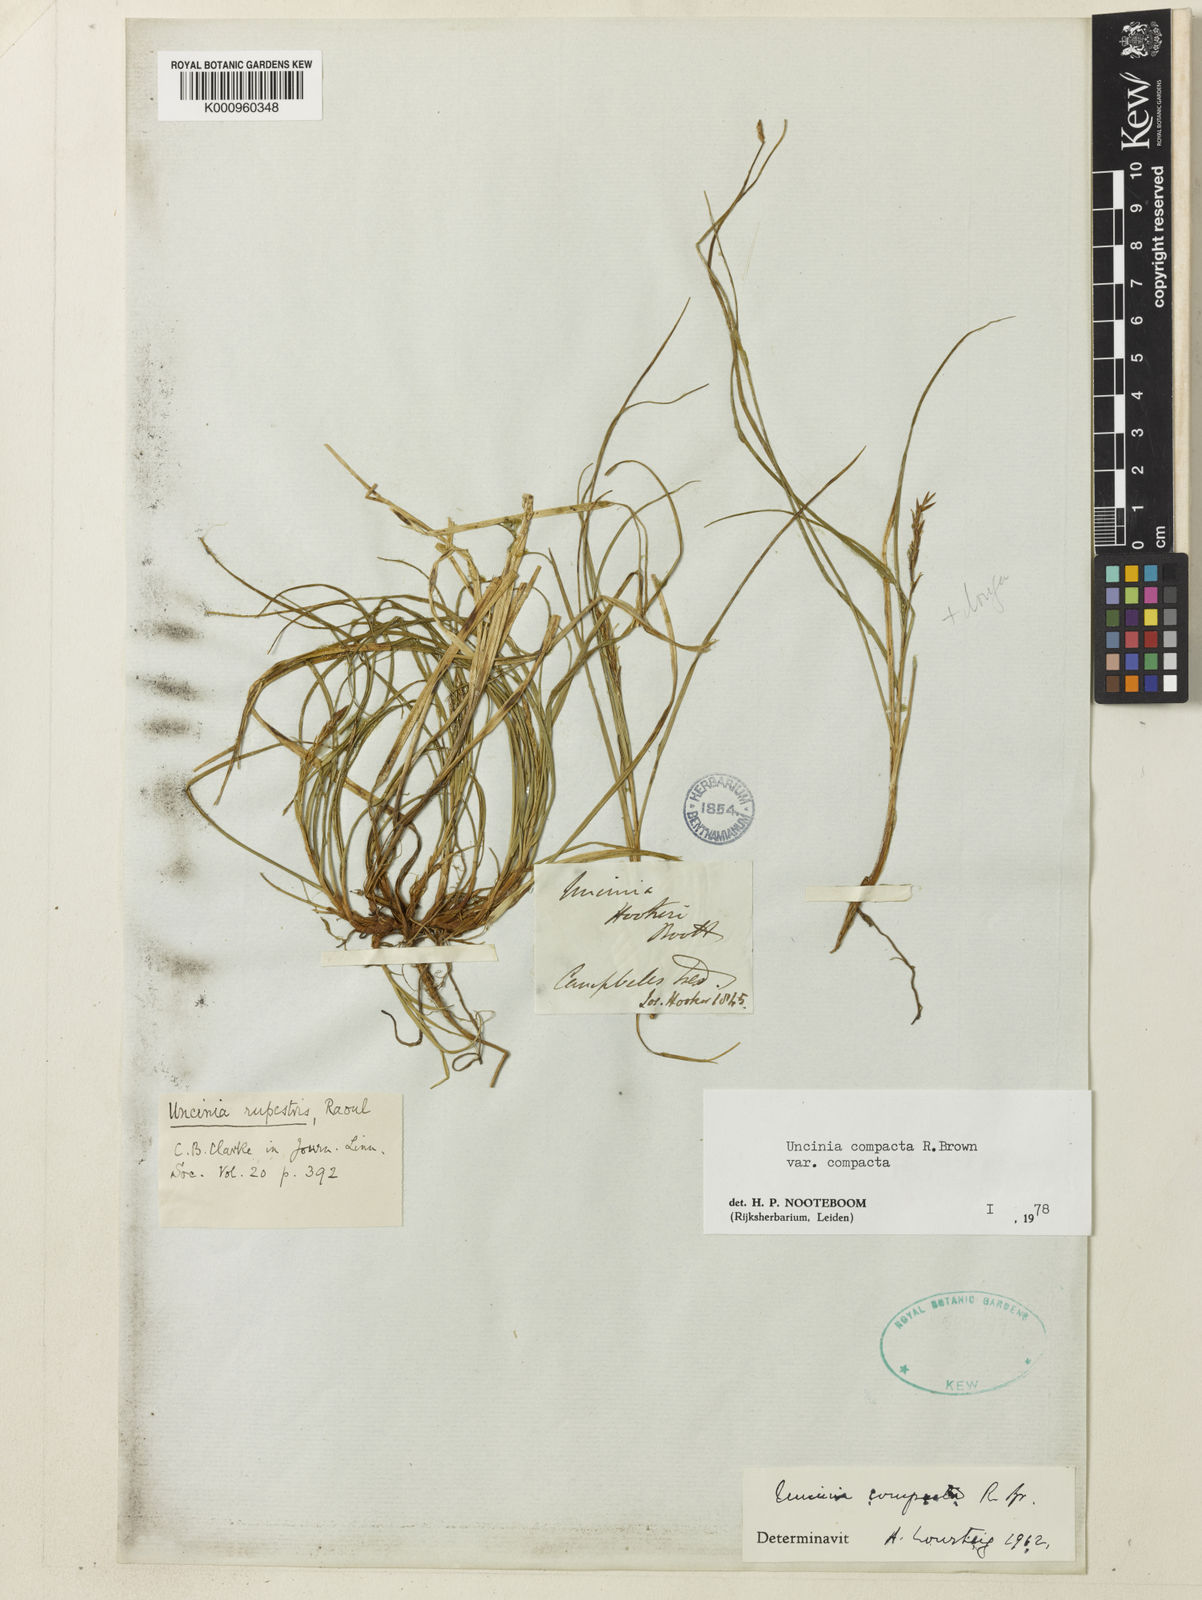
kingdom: Plantae
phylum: Tracheophyta
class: Liliopsida
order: Poales
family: Cyperaceae
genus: Carex
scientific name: Carex erebus
